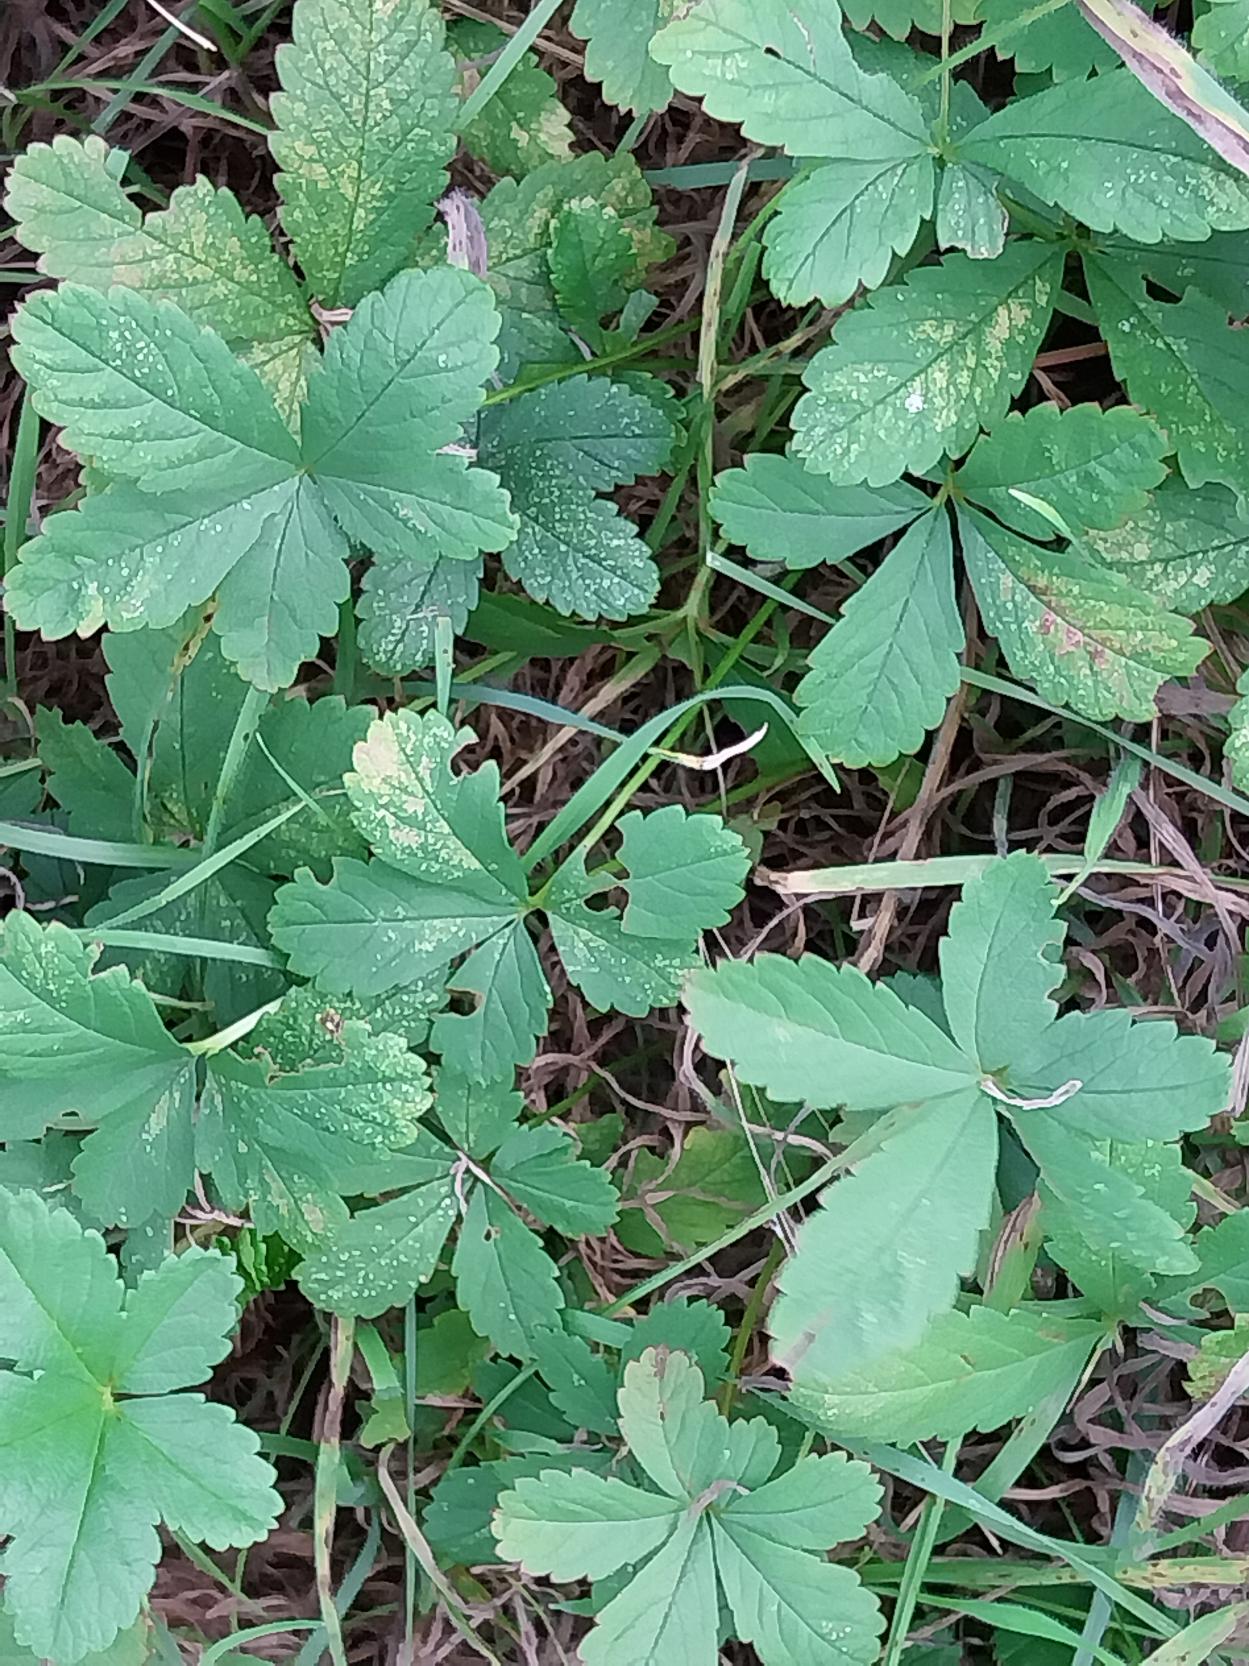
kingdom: Plantae
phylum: Tracheophyta
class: Magnoliopsida
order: Rosales
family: Rosaceae
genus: Potentilla
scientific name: Potentilla reptans
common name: Krybende potentil
